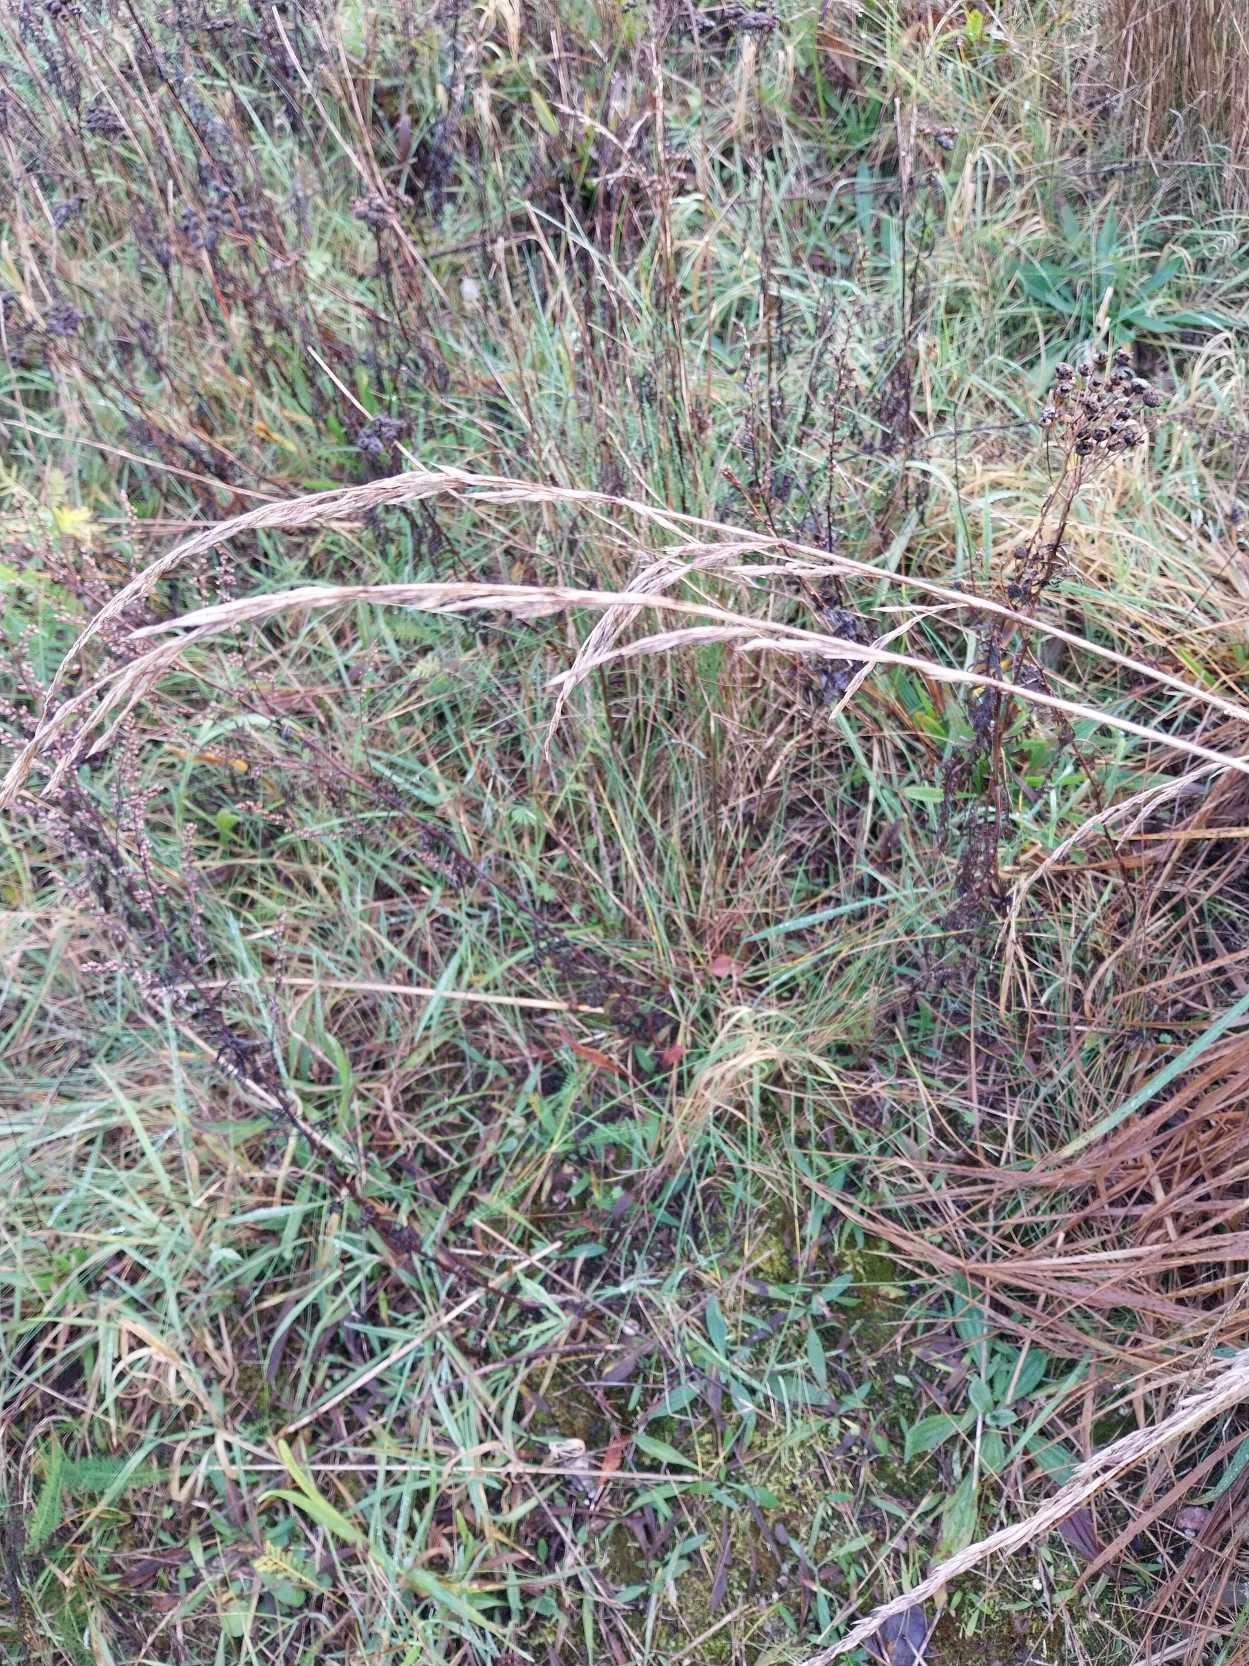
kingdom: Plantae
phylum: Tracheophyta
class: Liliopsida
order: Poales
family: Poaceae
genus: Lolium
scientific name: Lolium arundinaceum
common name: Strand-svingel
